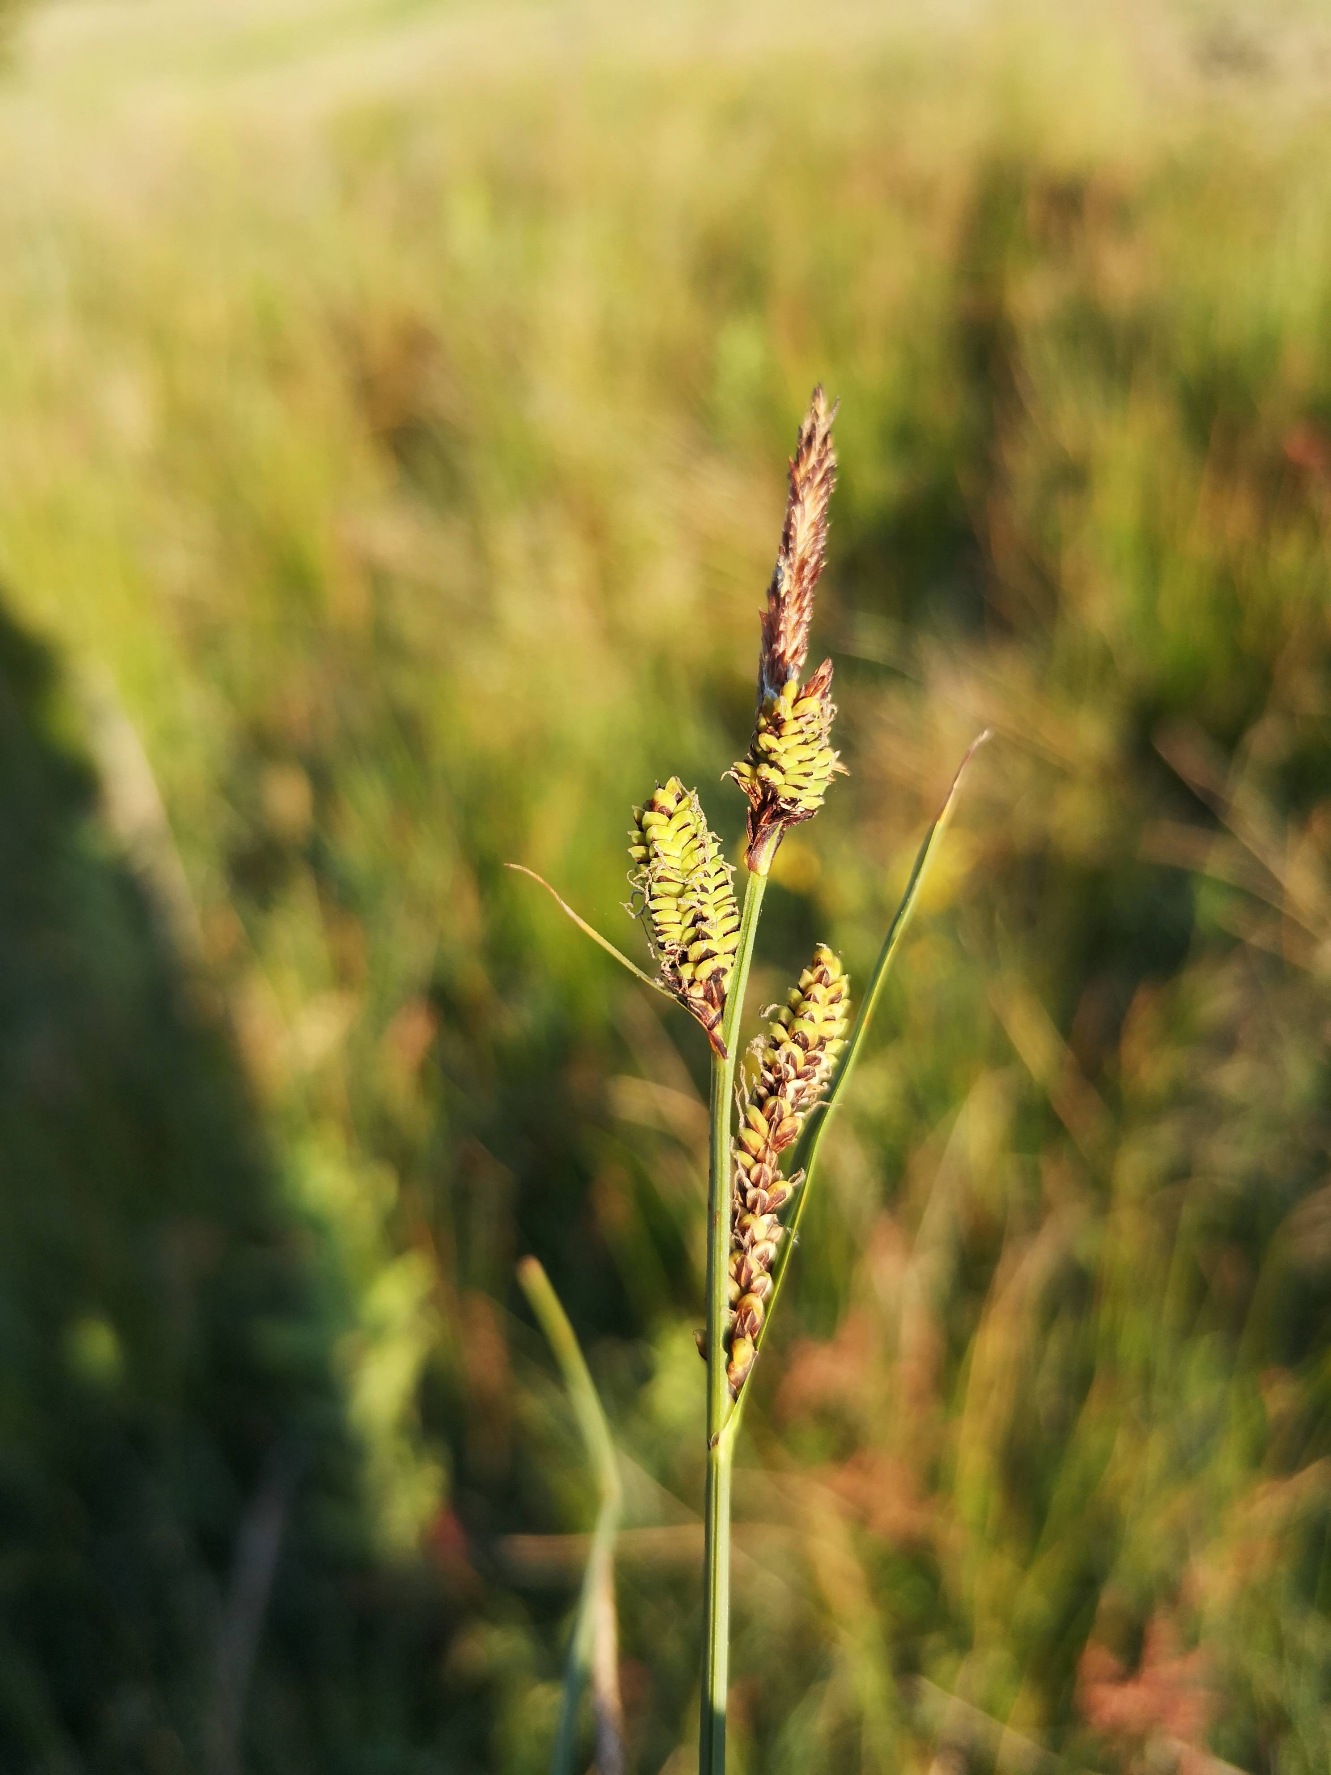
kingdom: Plantae
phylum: Tracheophyta
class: Liliopsida
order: Poales
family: Cyperaceae
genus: Carex
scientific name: Carex nigra
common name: Almindelig star
